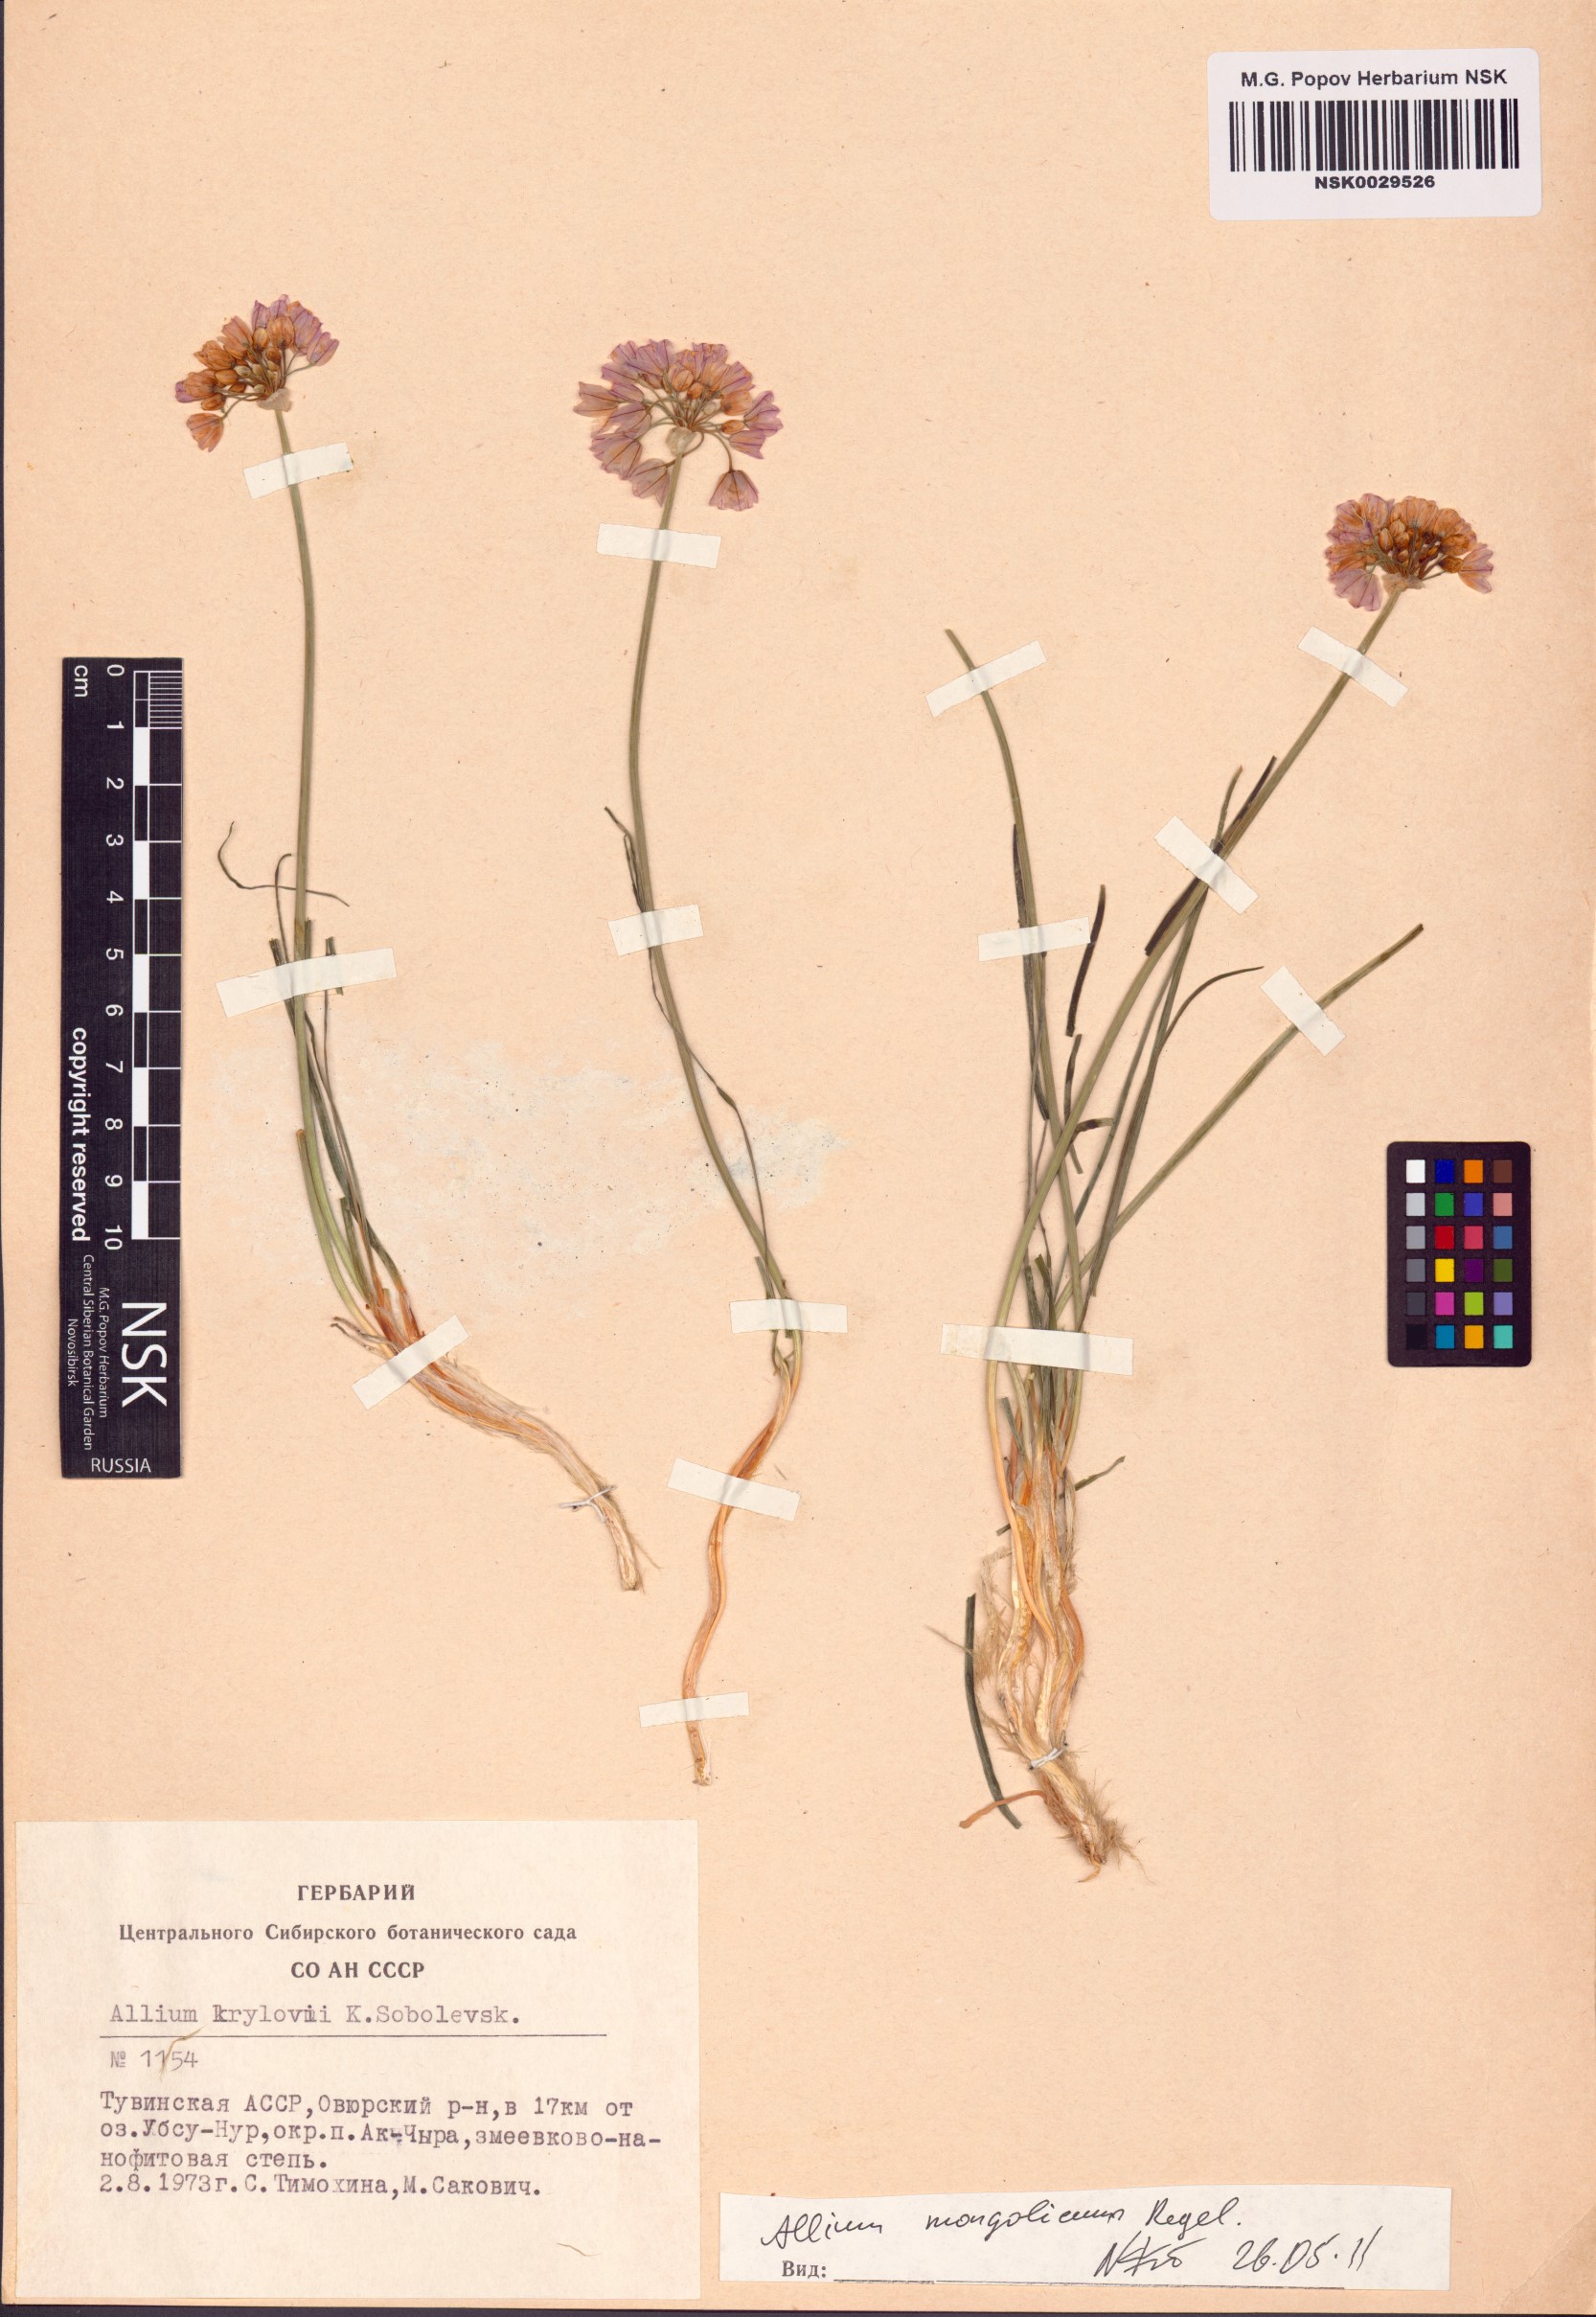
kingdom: Plantae
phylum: Tracheophyta
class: Liliopsida
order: Asparagales
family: Amaryllidaceae
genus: Allium
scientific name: Allium mongolicum
